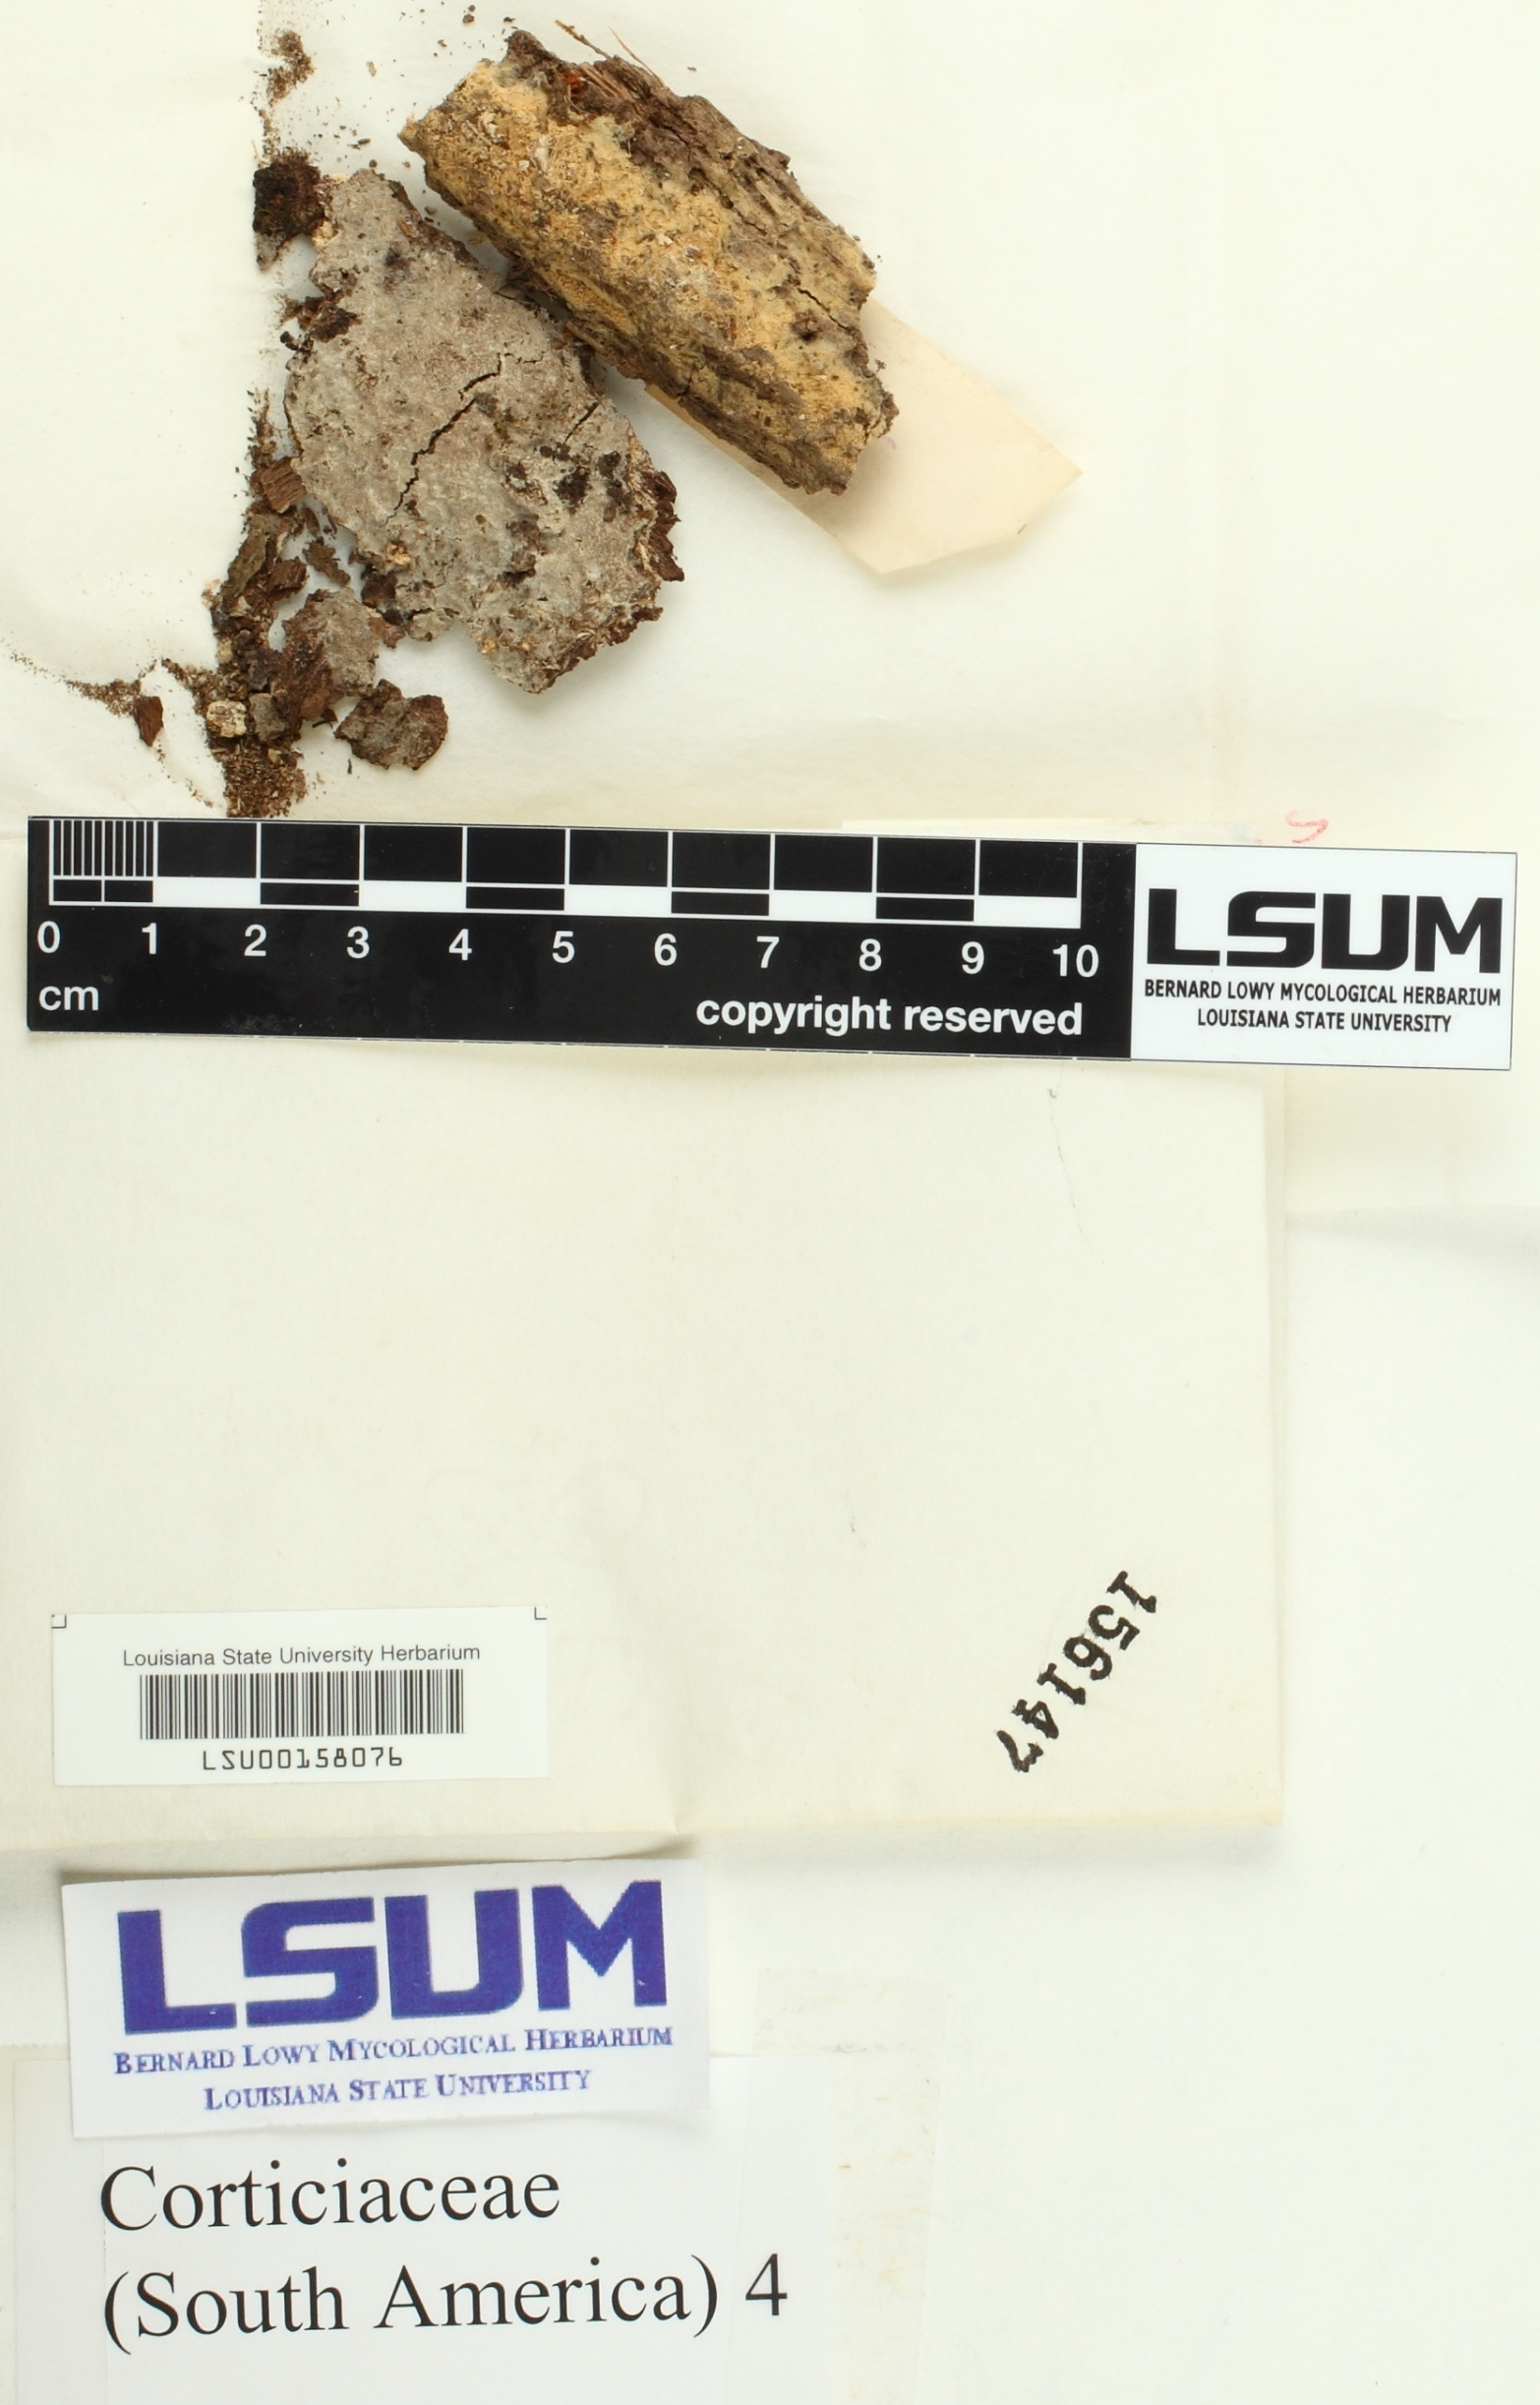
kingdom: Fungi
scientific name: Fungi
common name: Fungi
